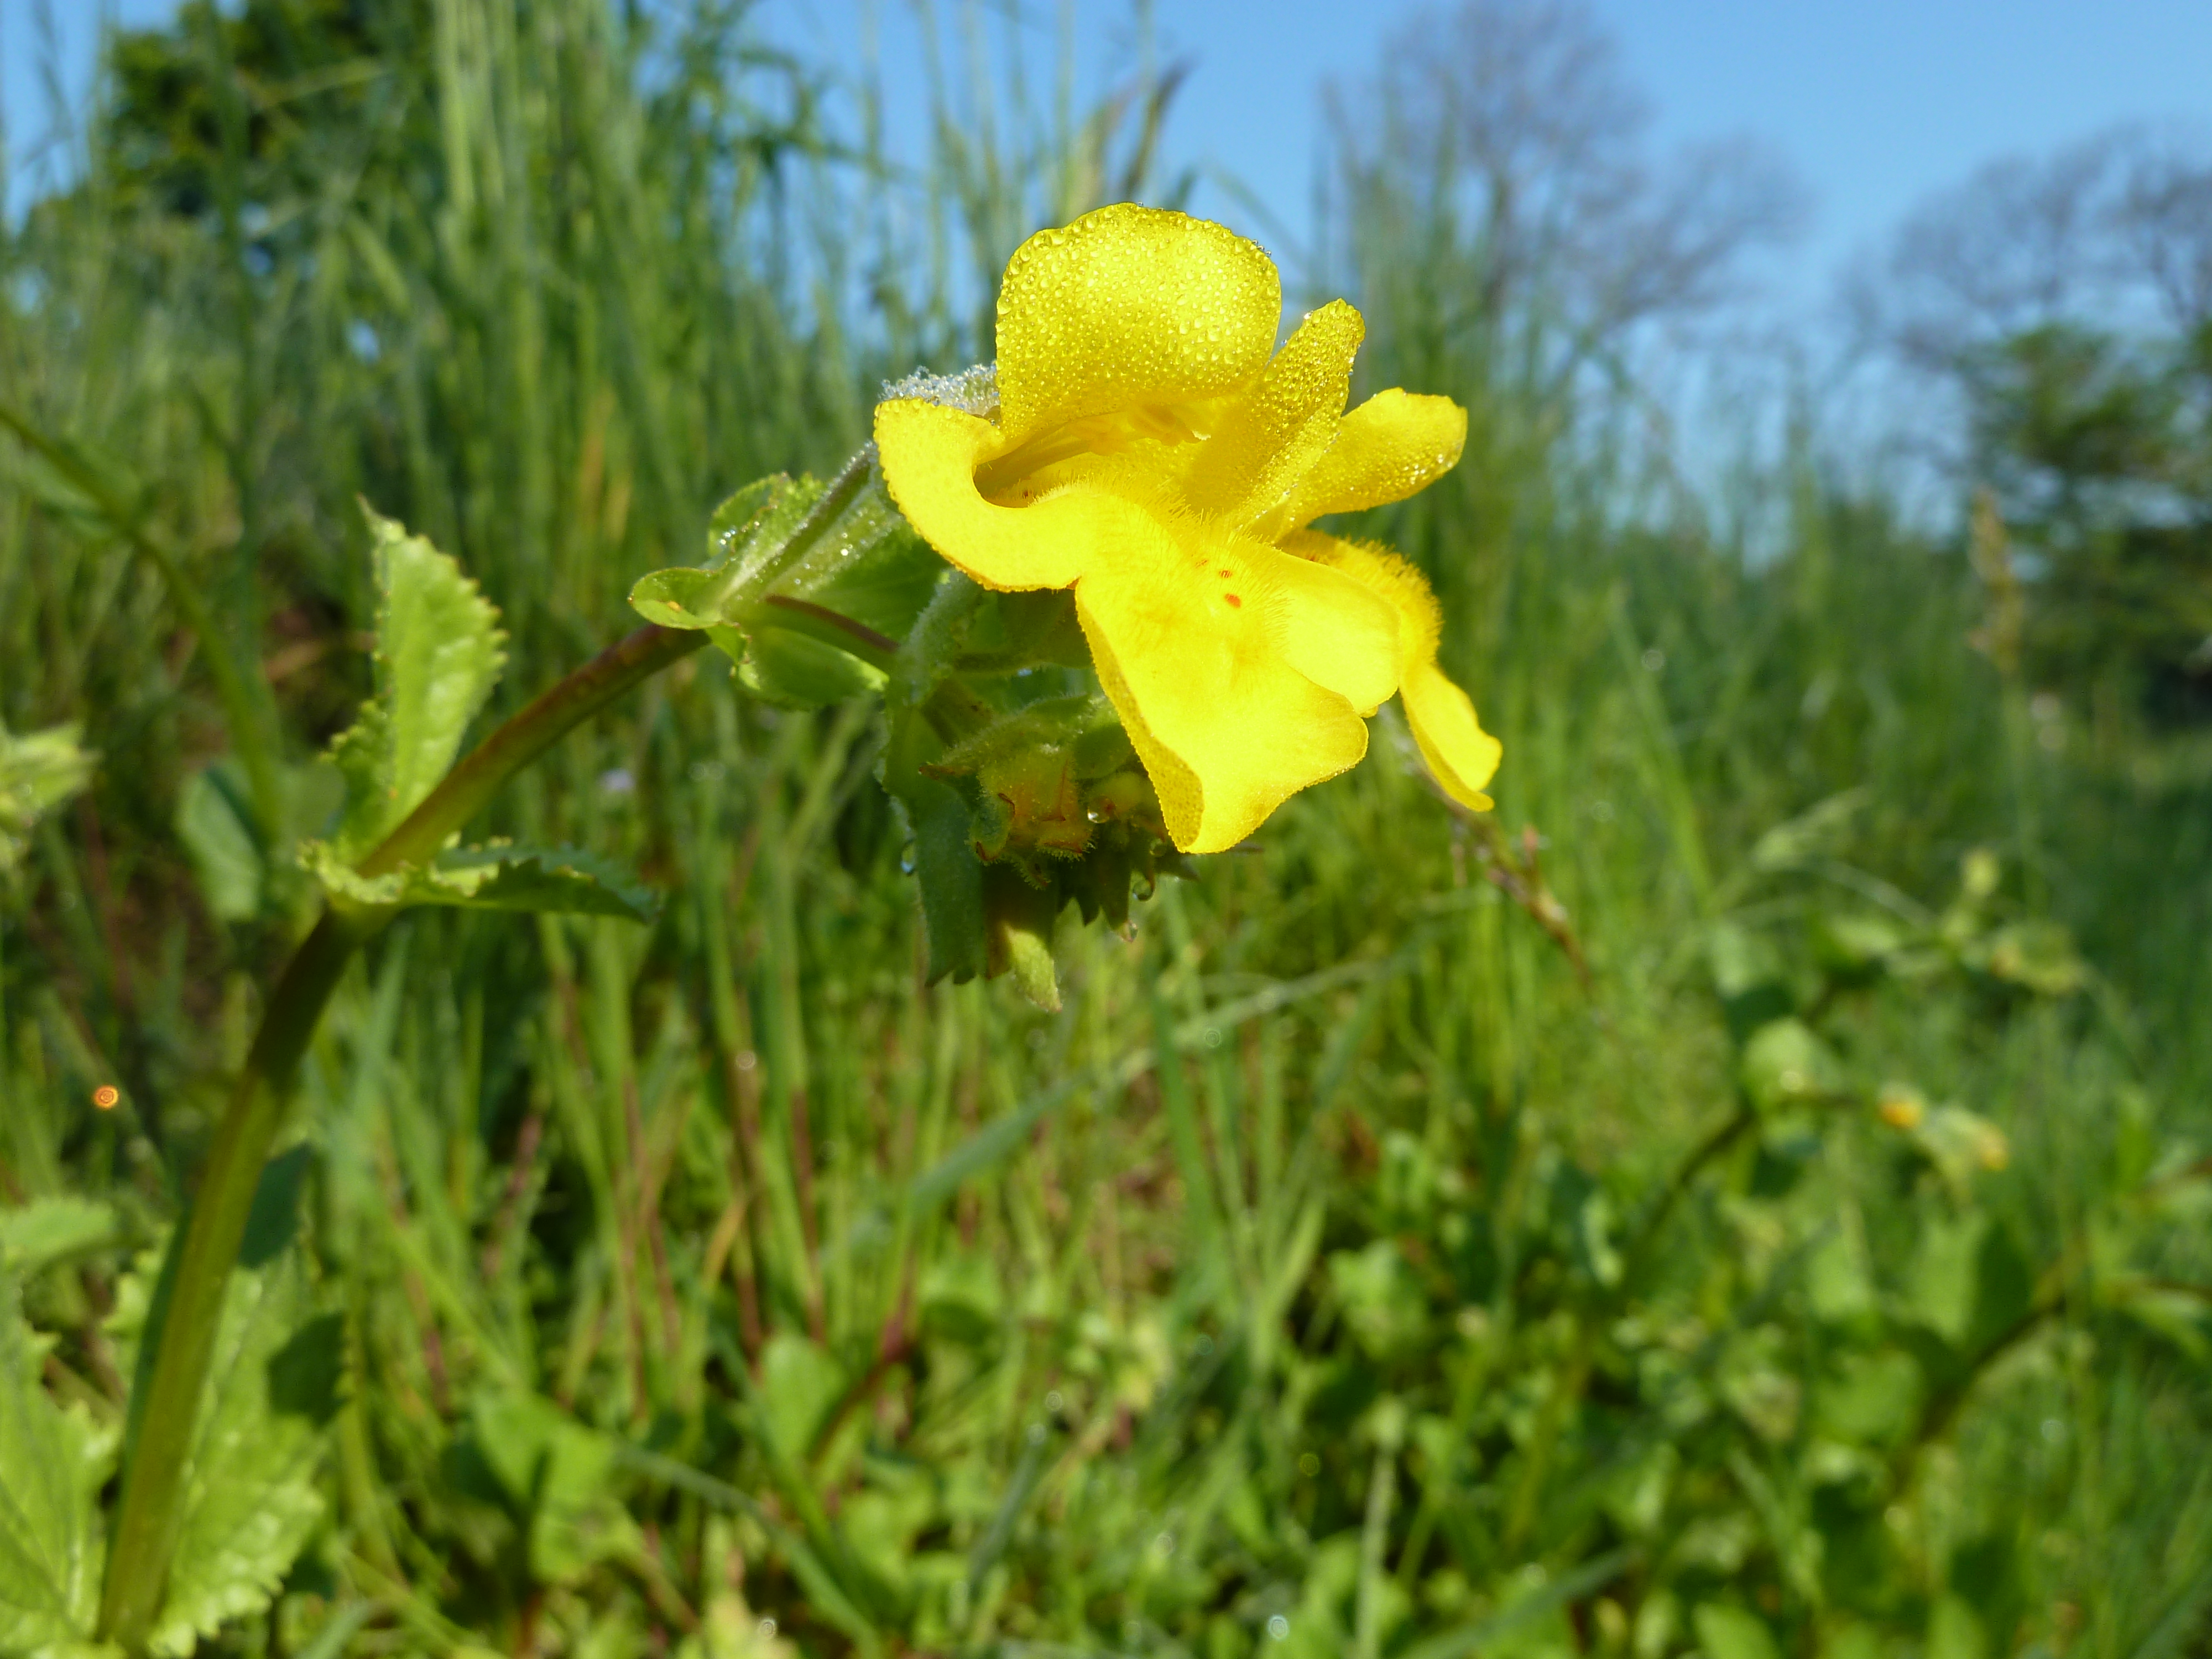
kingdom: Plantae
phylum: Tracheophyta
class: Magnoliopsida
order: Lamiales
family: Phrymaceae
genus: Erythranthe
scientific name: Erythranthe guttata
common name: Monkeyflower
